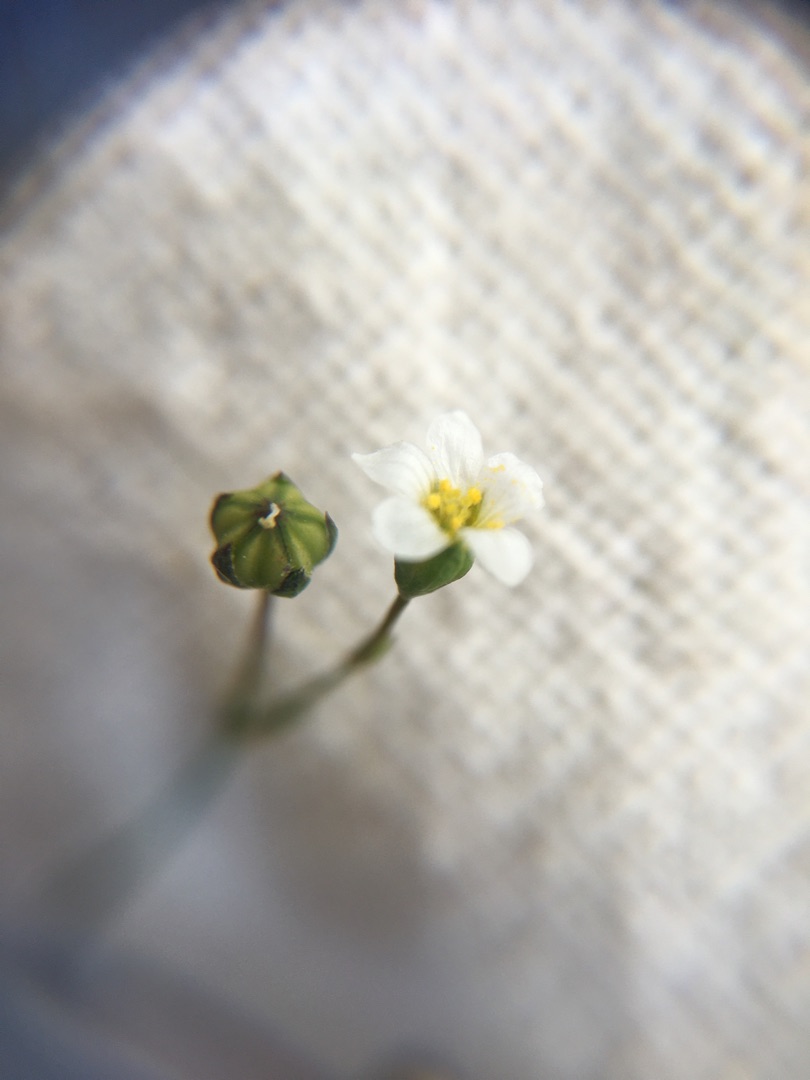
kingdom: Plantae
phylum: Tracheophyta
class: Magnoliopsida
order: Malpighiales
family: Linaceae
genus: Linum
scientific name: Linum catharticum
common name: Vild hør
